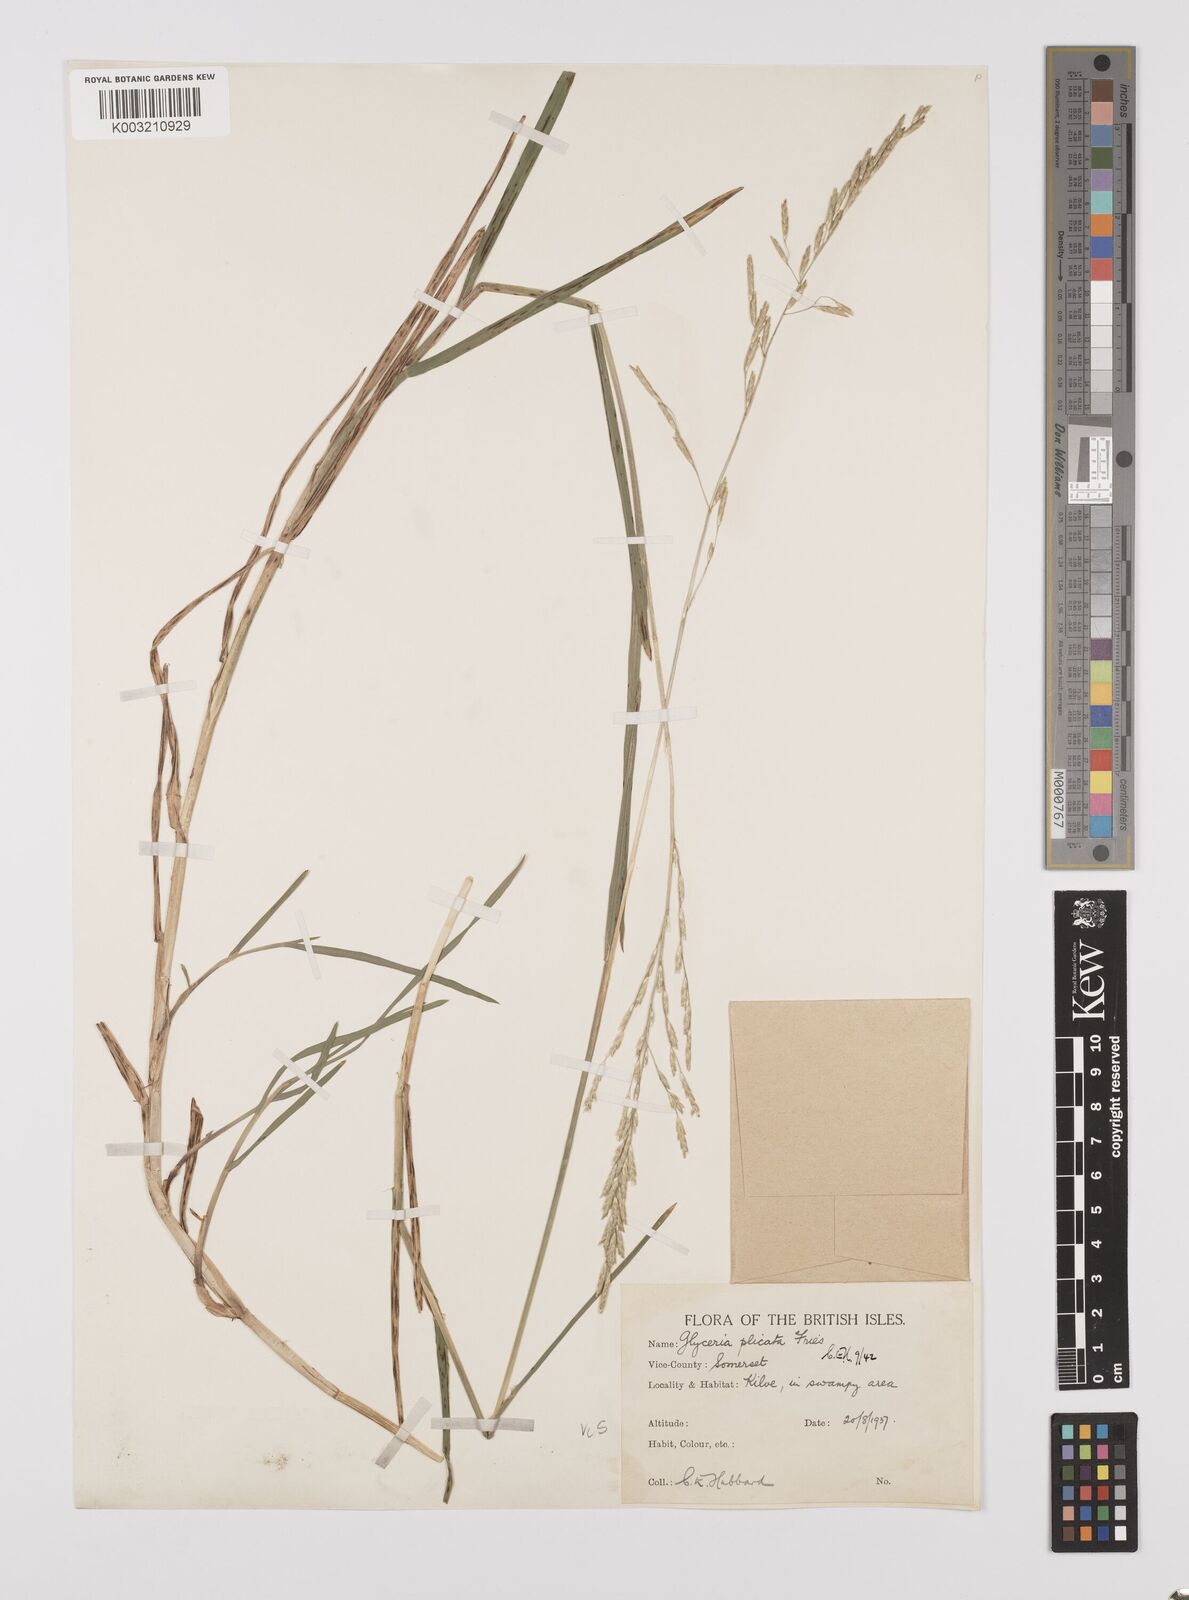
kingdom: Plantae
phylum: Tracheophyta
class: Liliopsida
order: Poales
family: Poaceae
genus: Glyceria
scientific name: Glyceria notata
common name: Plicate sweet-grass
